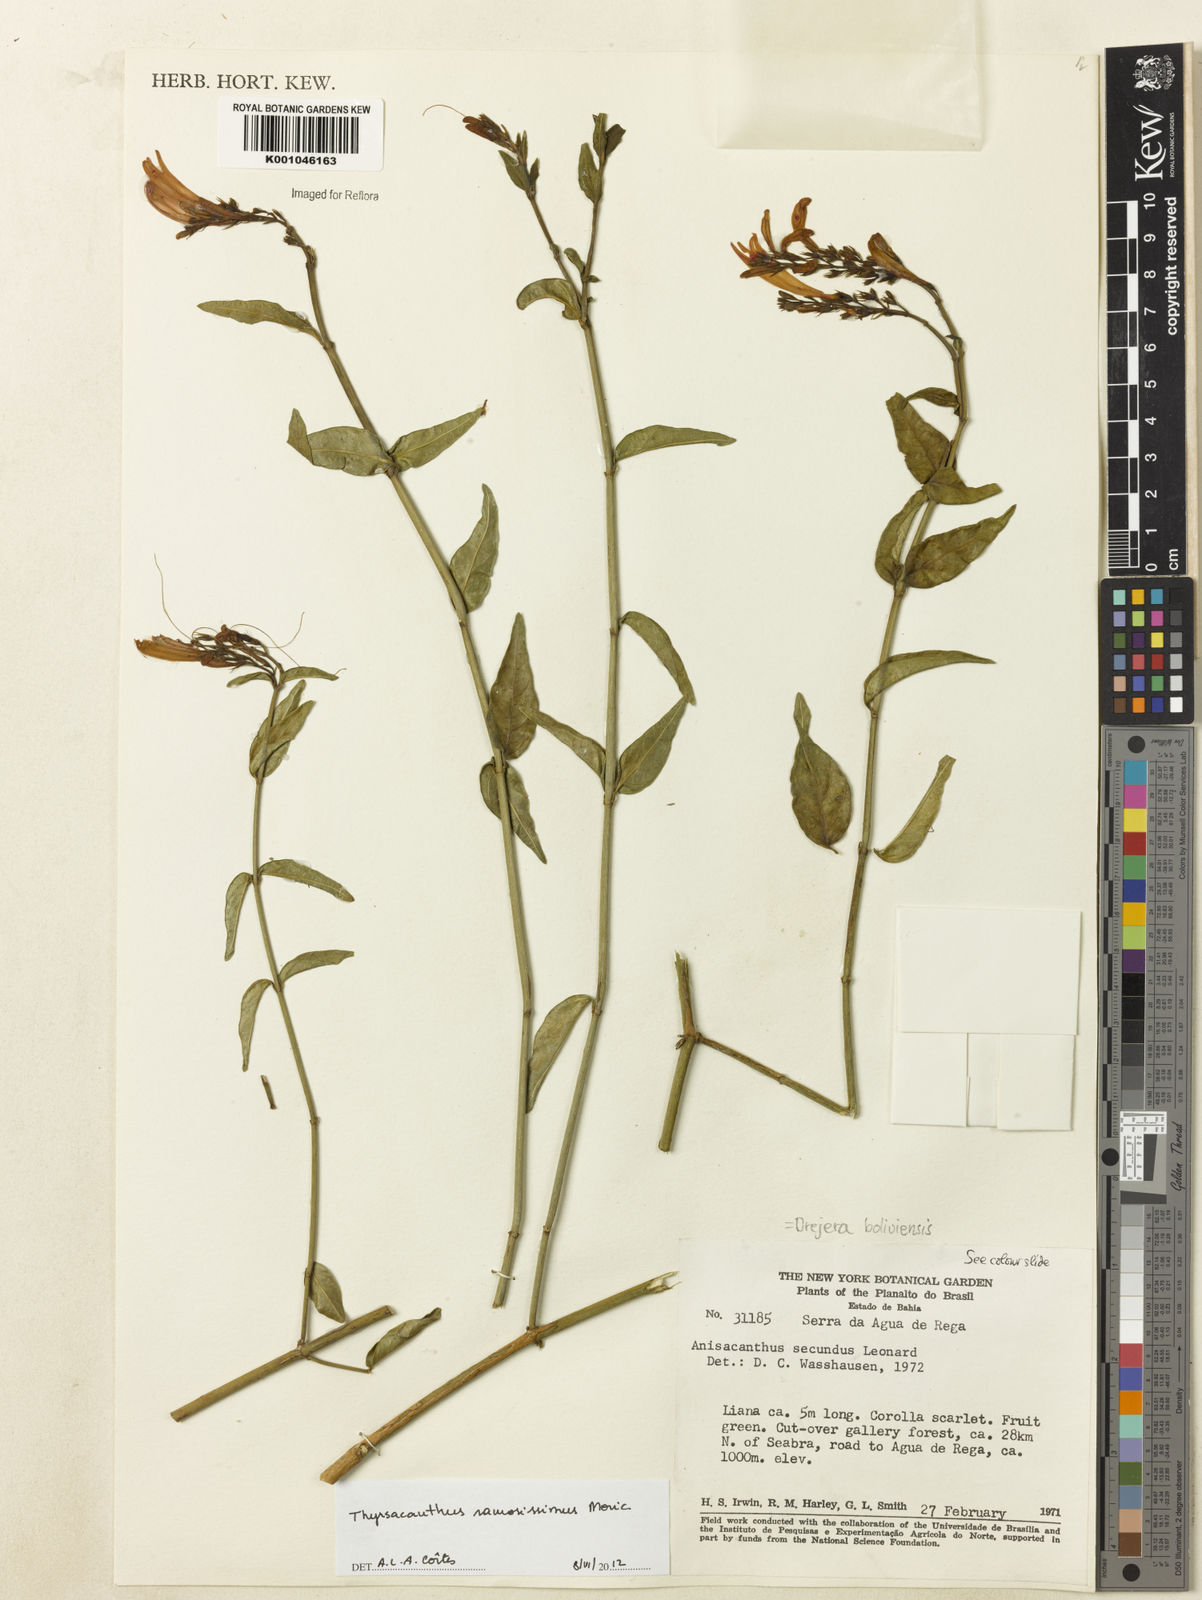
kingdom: Plantae
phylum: Tracheophyta
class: Magnoliopsida
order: Lamiales
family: Acanthaceae
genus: Thyrsacanthus
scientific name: Thyrsacanthus ramosissimus
